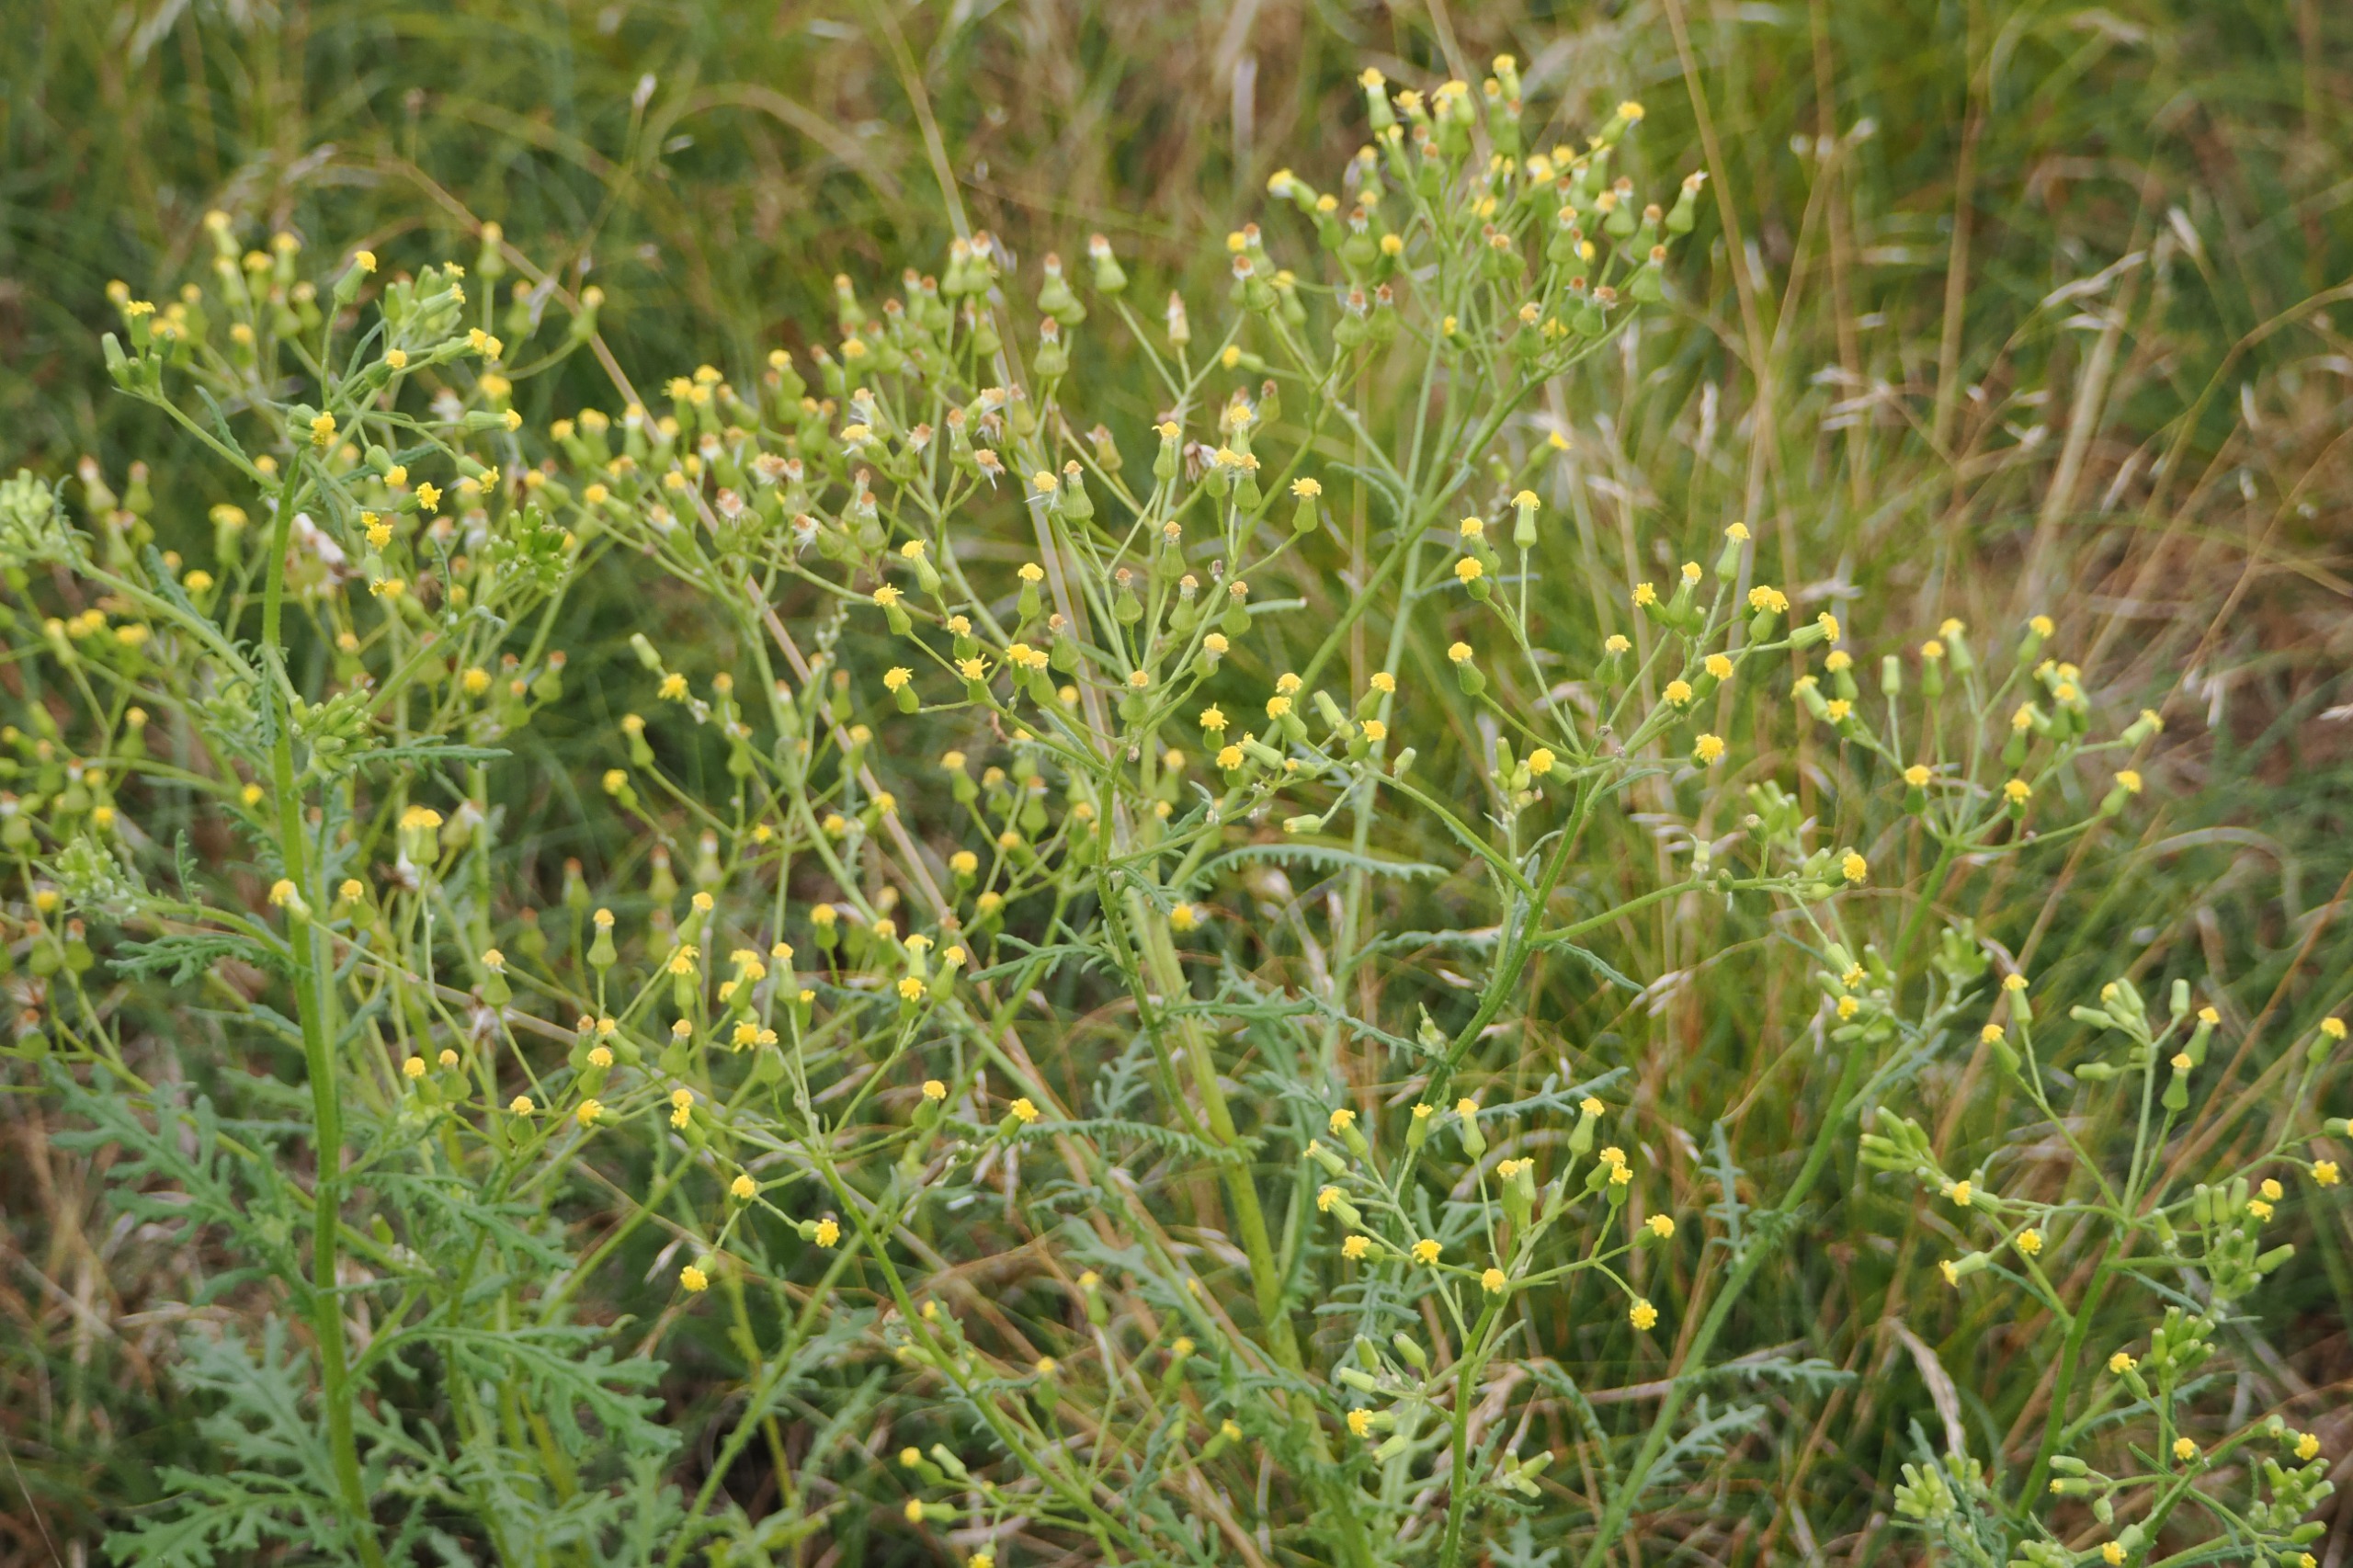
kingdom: Plantae
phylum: Tracheophyta
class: Magnoliopsida
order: Asterales
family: Asteraceae
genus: Senecio
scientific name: Senecio sylvaticus
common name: Skov-brandbæger
